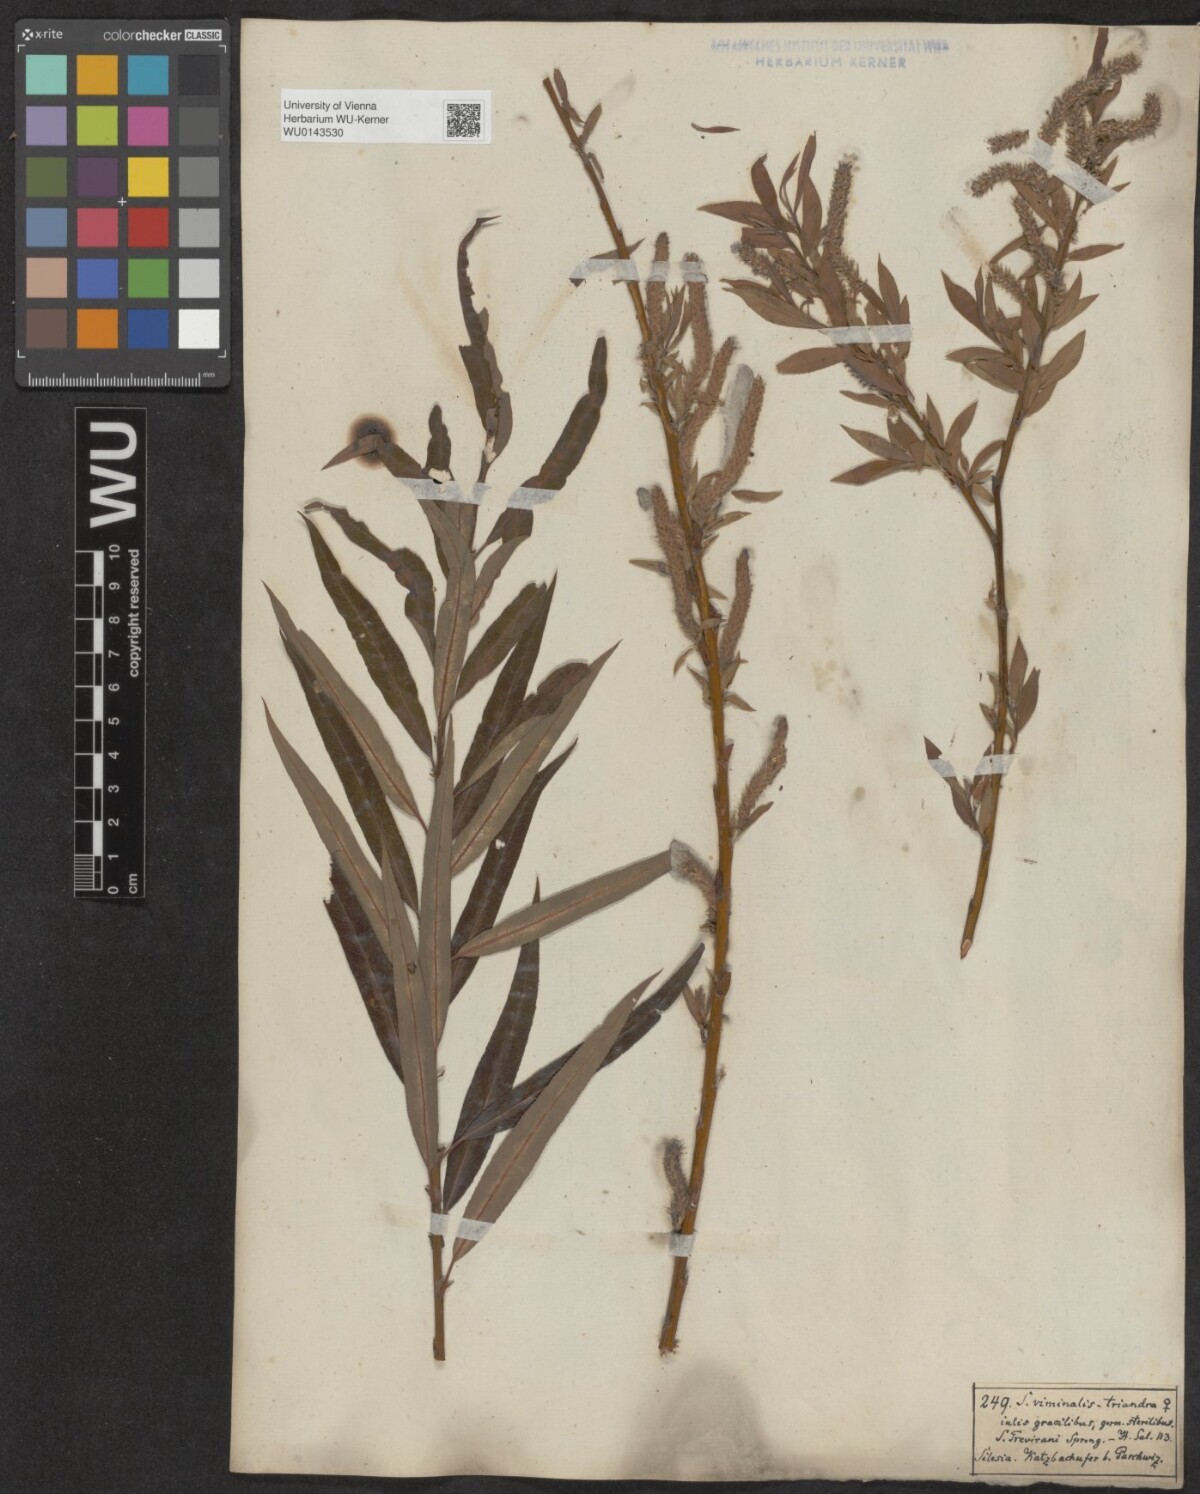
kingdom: Plantae
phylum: Tracheophyta
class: Magnoliopsida
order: Malpighiales
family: Salicaceae
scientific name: Salicaceae
